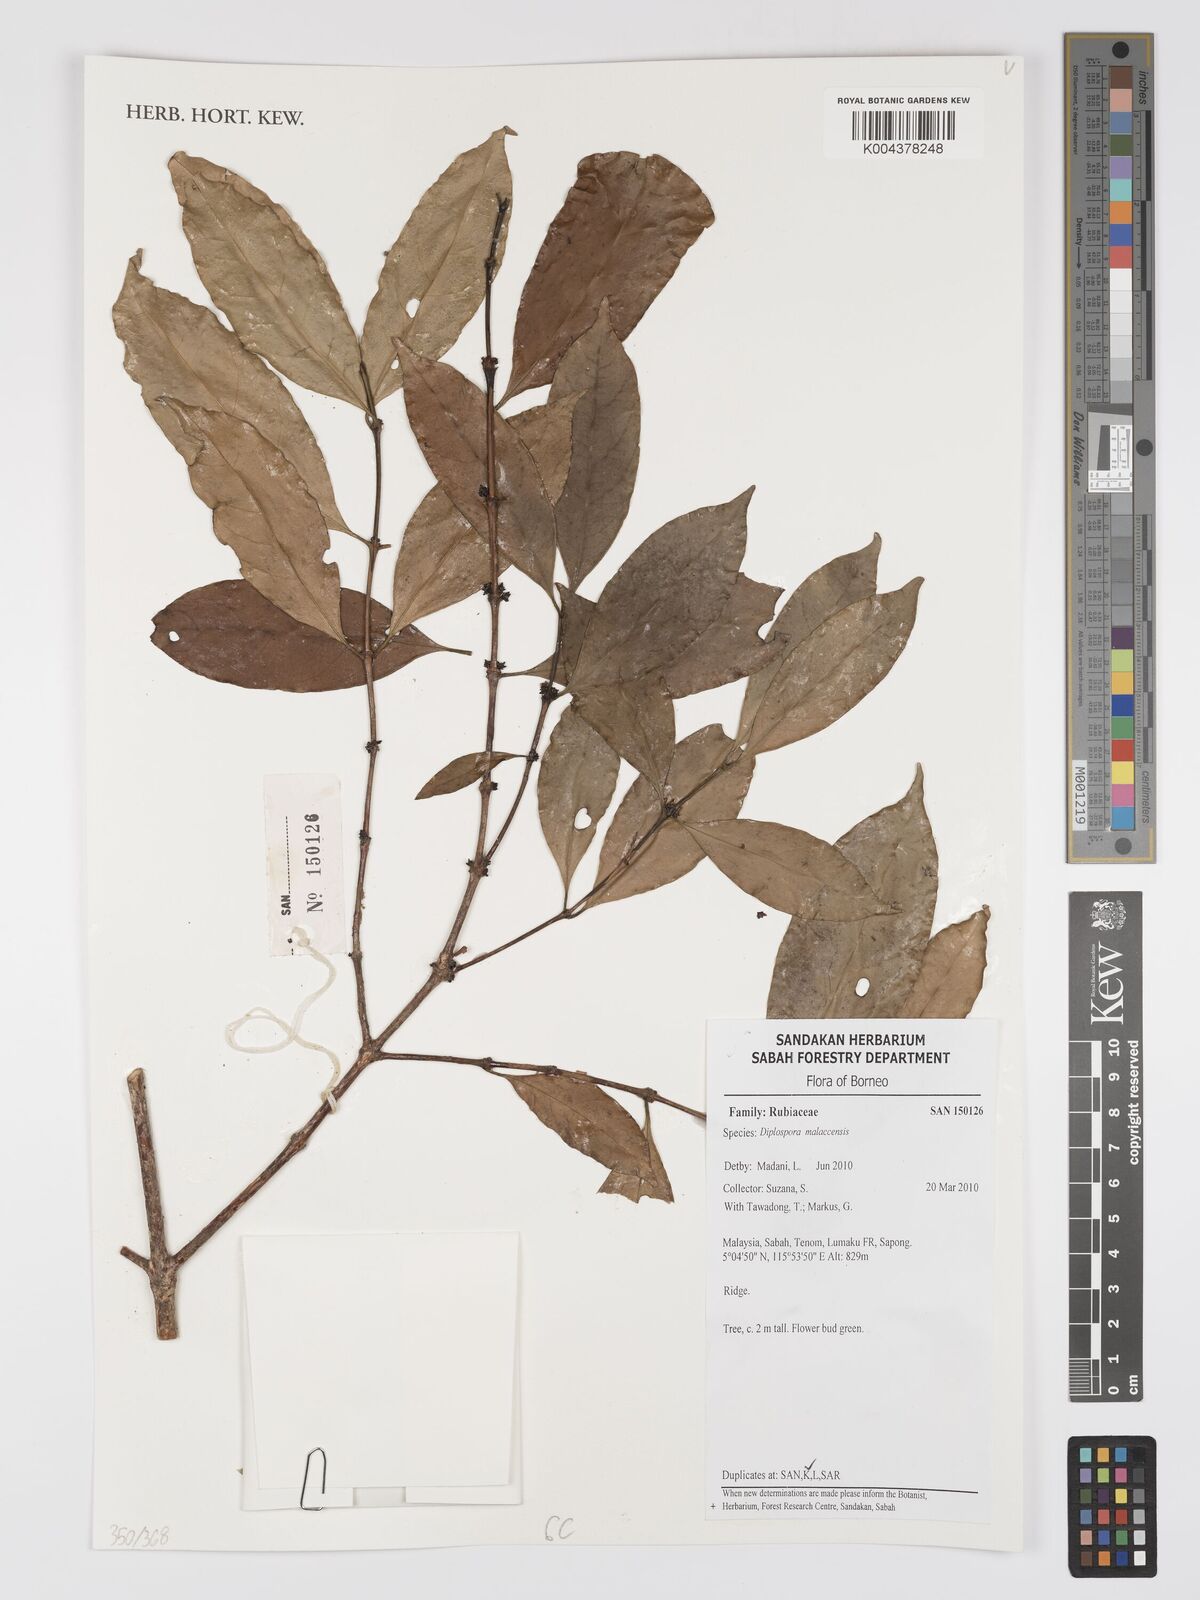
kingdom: Plantae
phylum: Tracheophyta
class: Magnoliopsida
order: Gentianales
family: Rubiaceae
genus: Discospermum
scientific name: Discospermum malaccense
